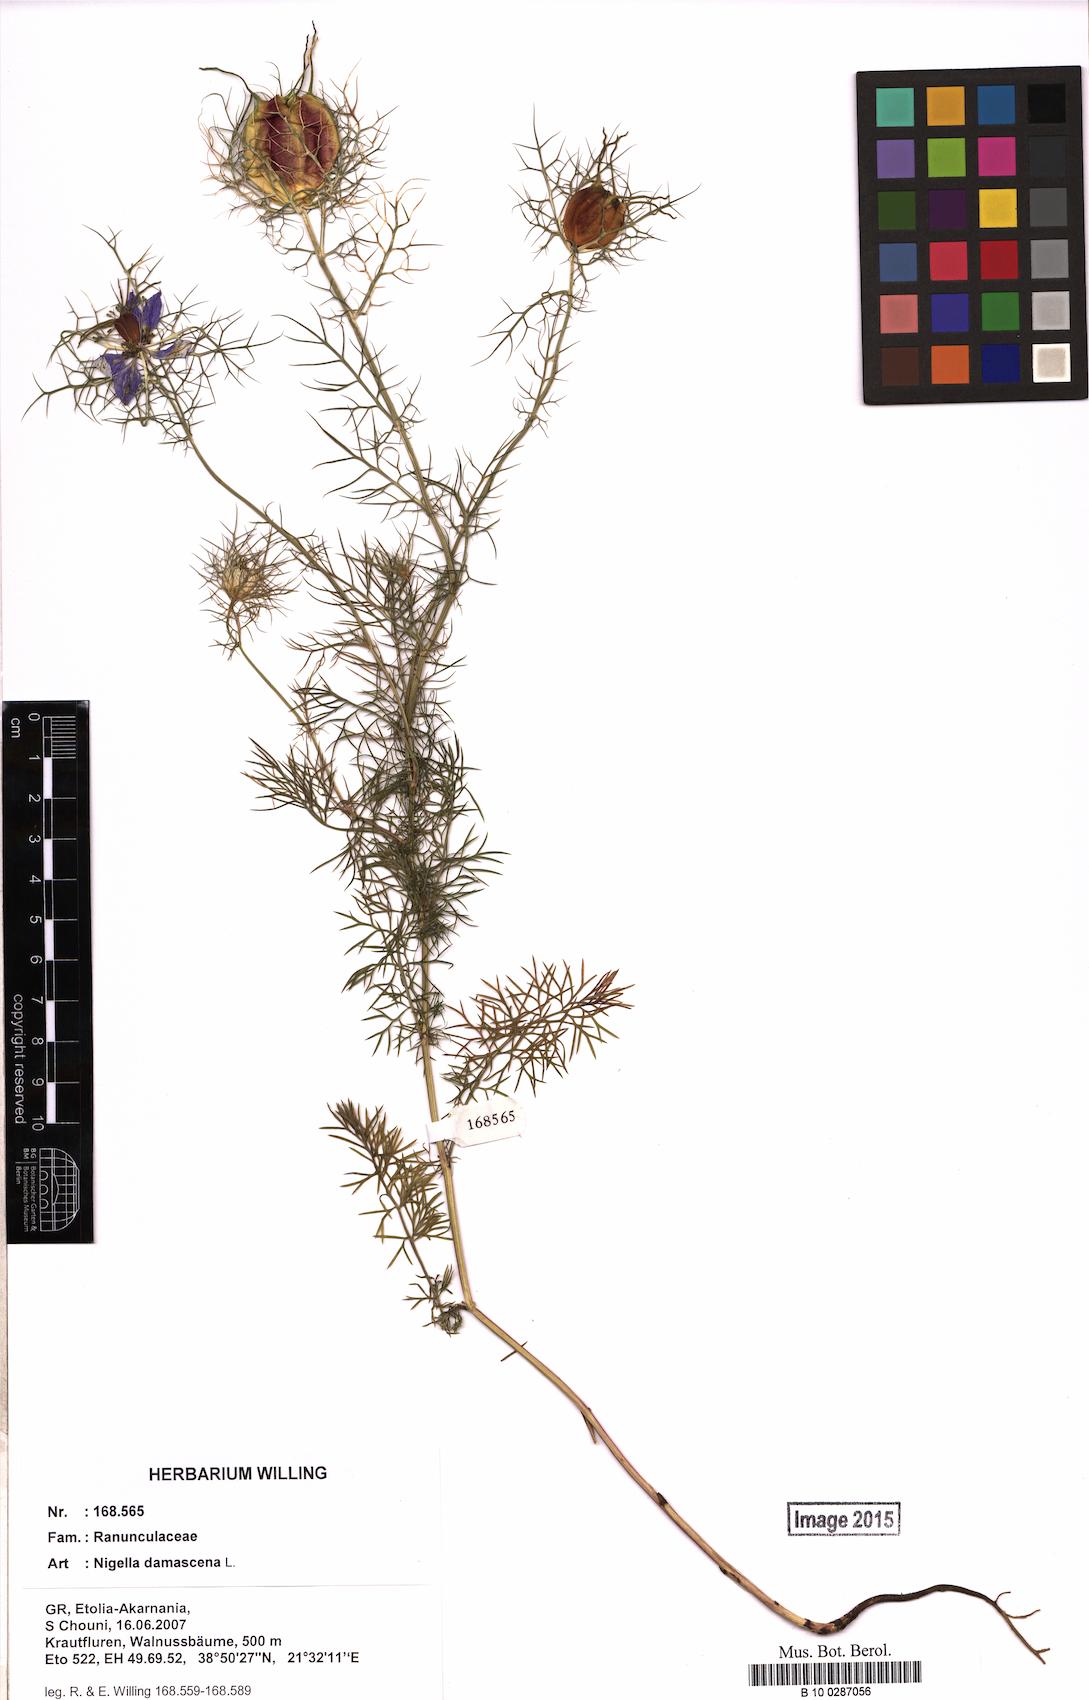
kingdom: Plantae
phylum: Tracheophyta
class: Magnoliopsida
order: Ranunculales
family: Ranunculaceae
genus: Nigella
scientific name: Nigella damascena
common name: Love-in-a-mist
